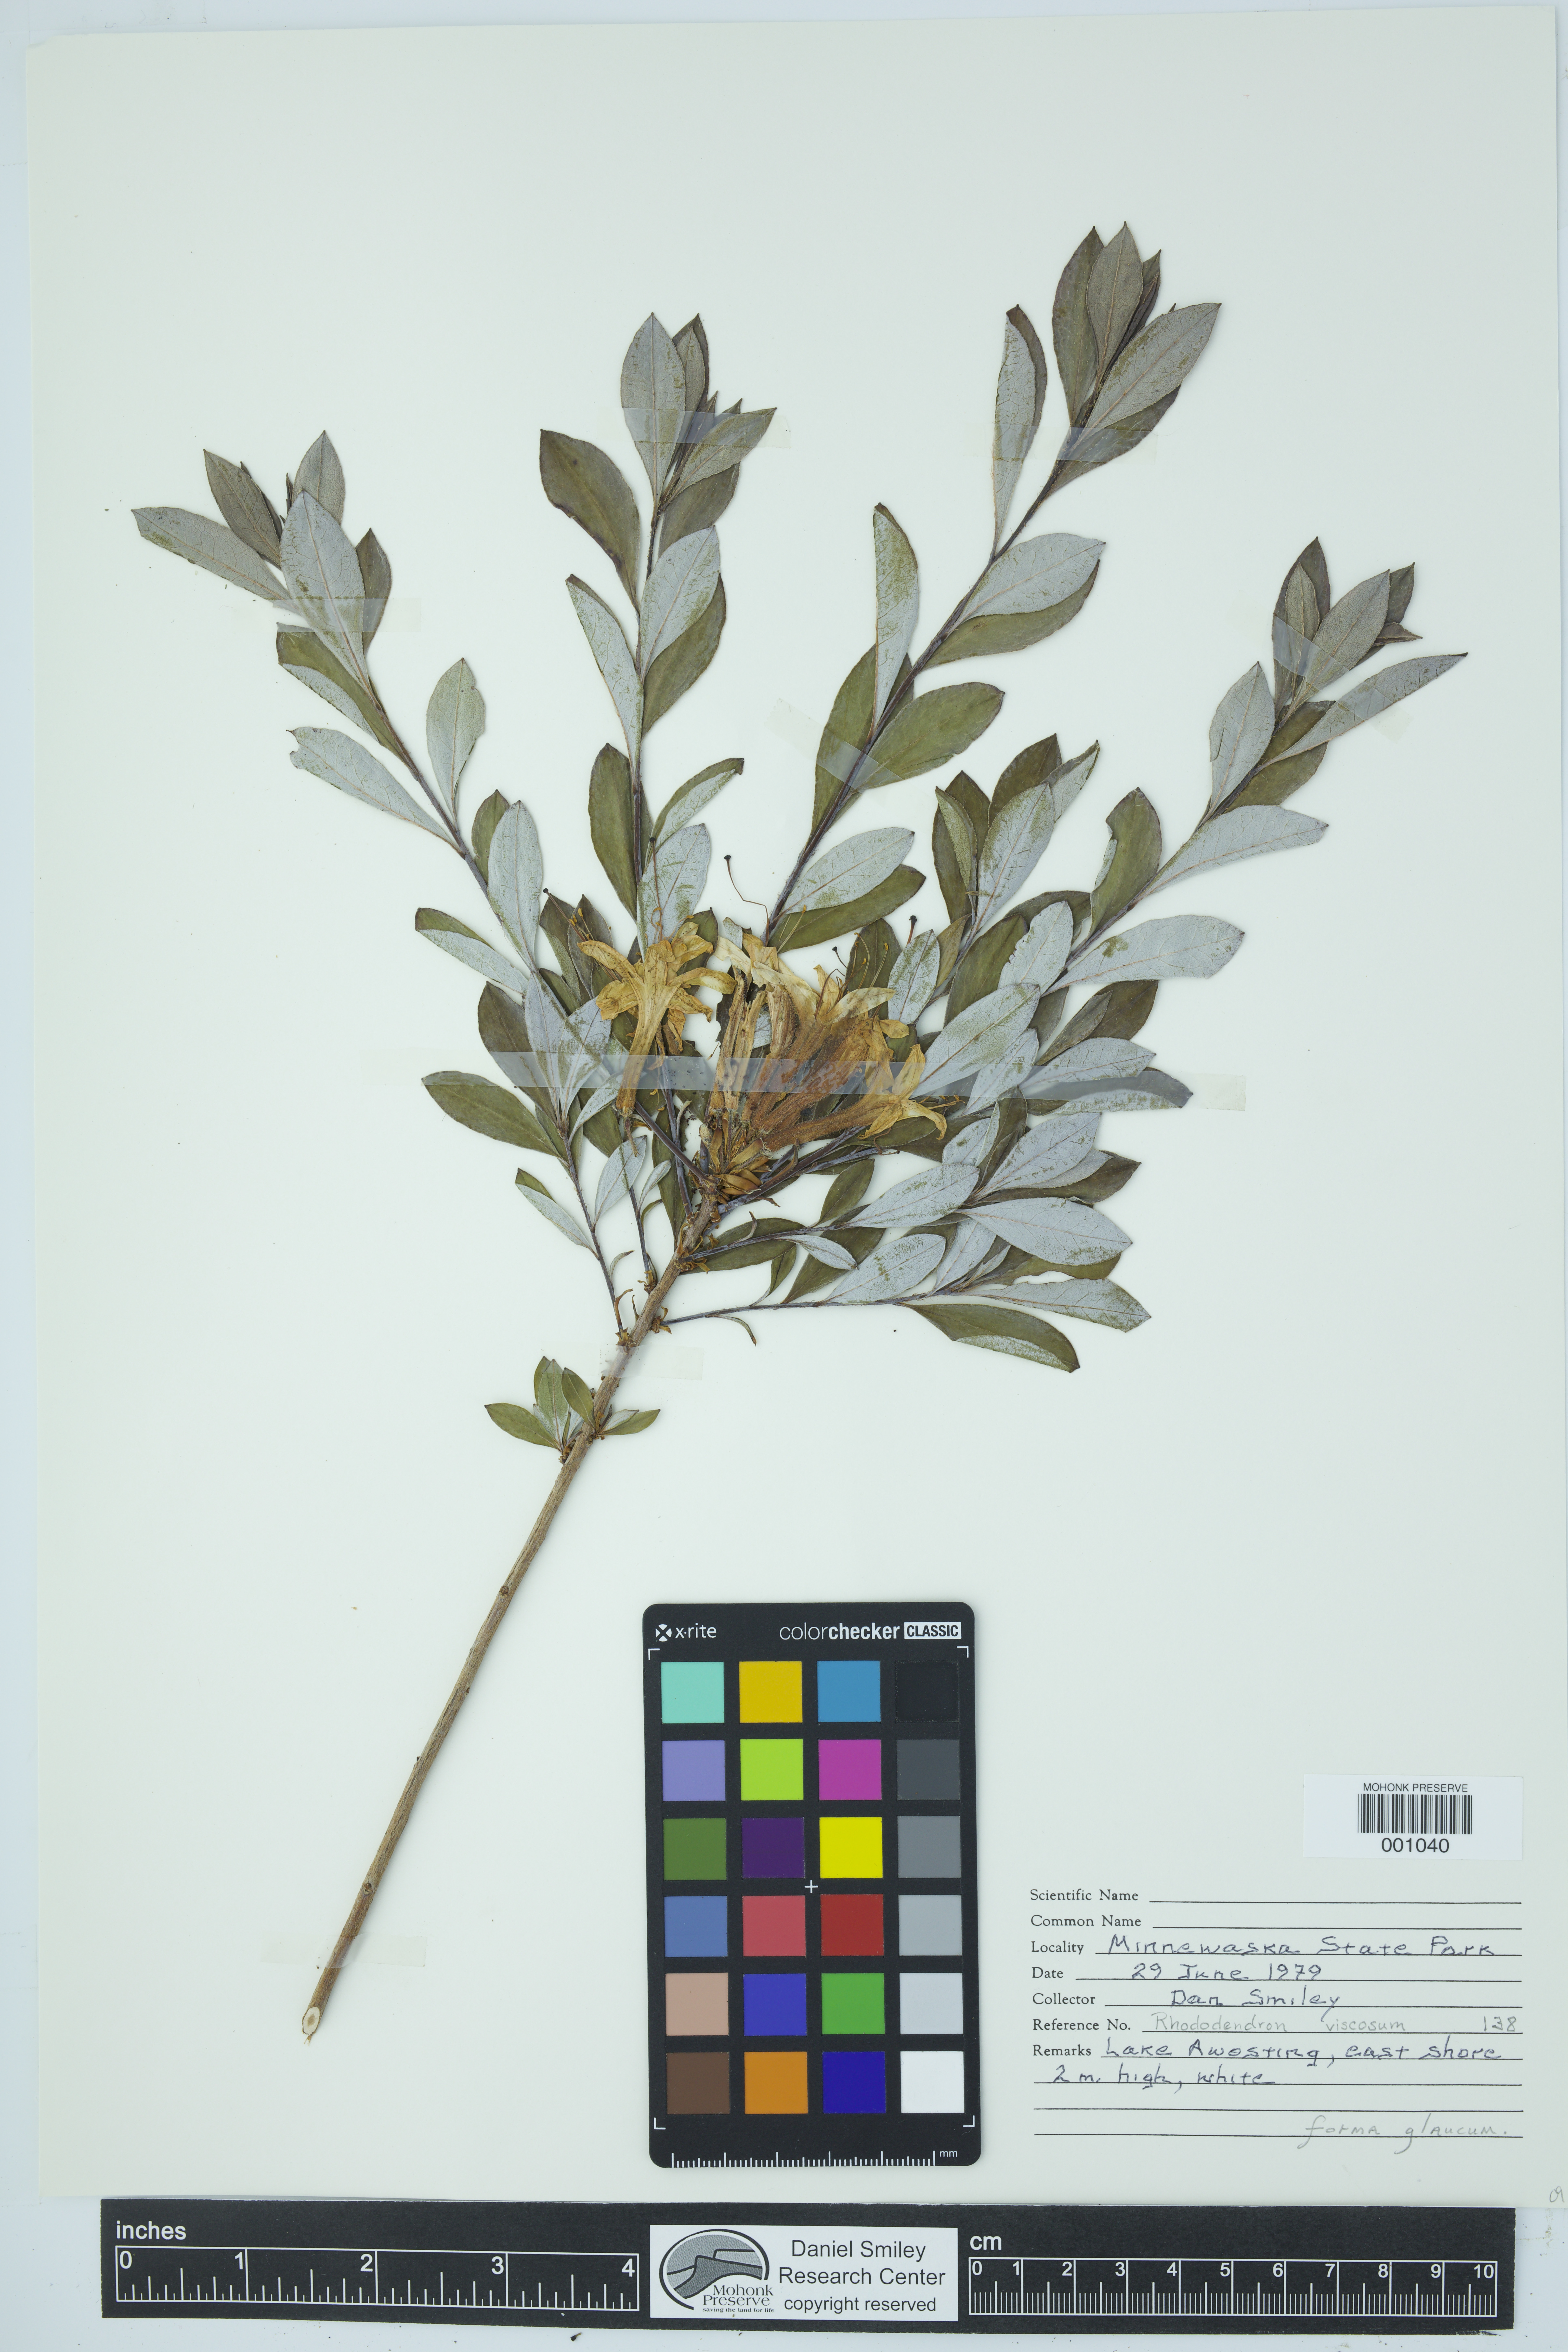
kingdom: Plantae
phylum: Tracheophyta
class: Magnoliopsida
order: Ericales
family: Ericaceae
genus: Rhododendron
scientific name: Rhododendron viscosum
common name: Clammy azalea
